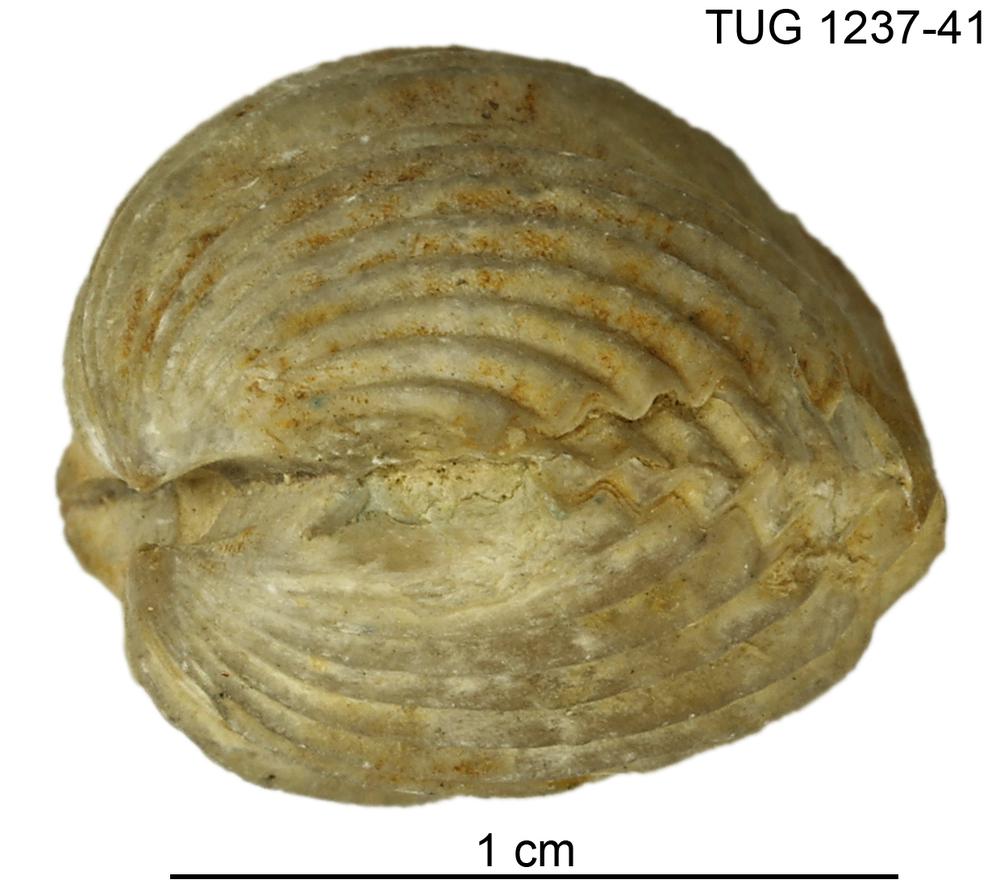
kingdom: Animalia
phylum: Brachiopoda
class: Rhynchonellata
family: Plectorthidae
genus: Platystrophia
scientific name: Platystrophia orbiculata
